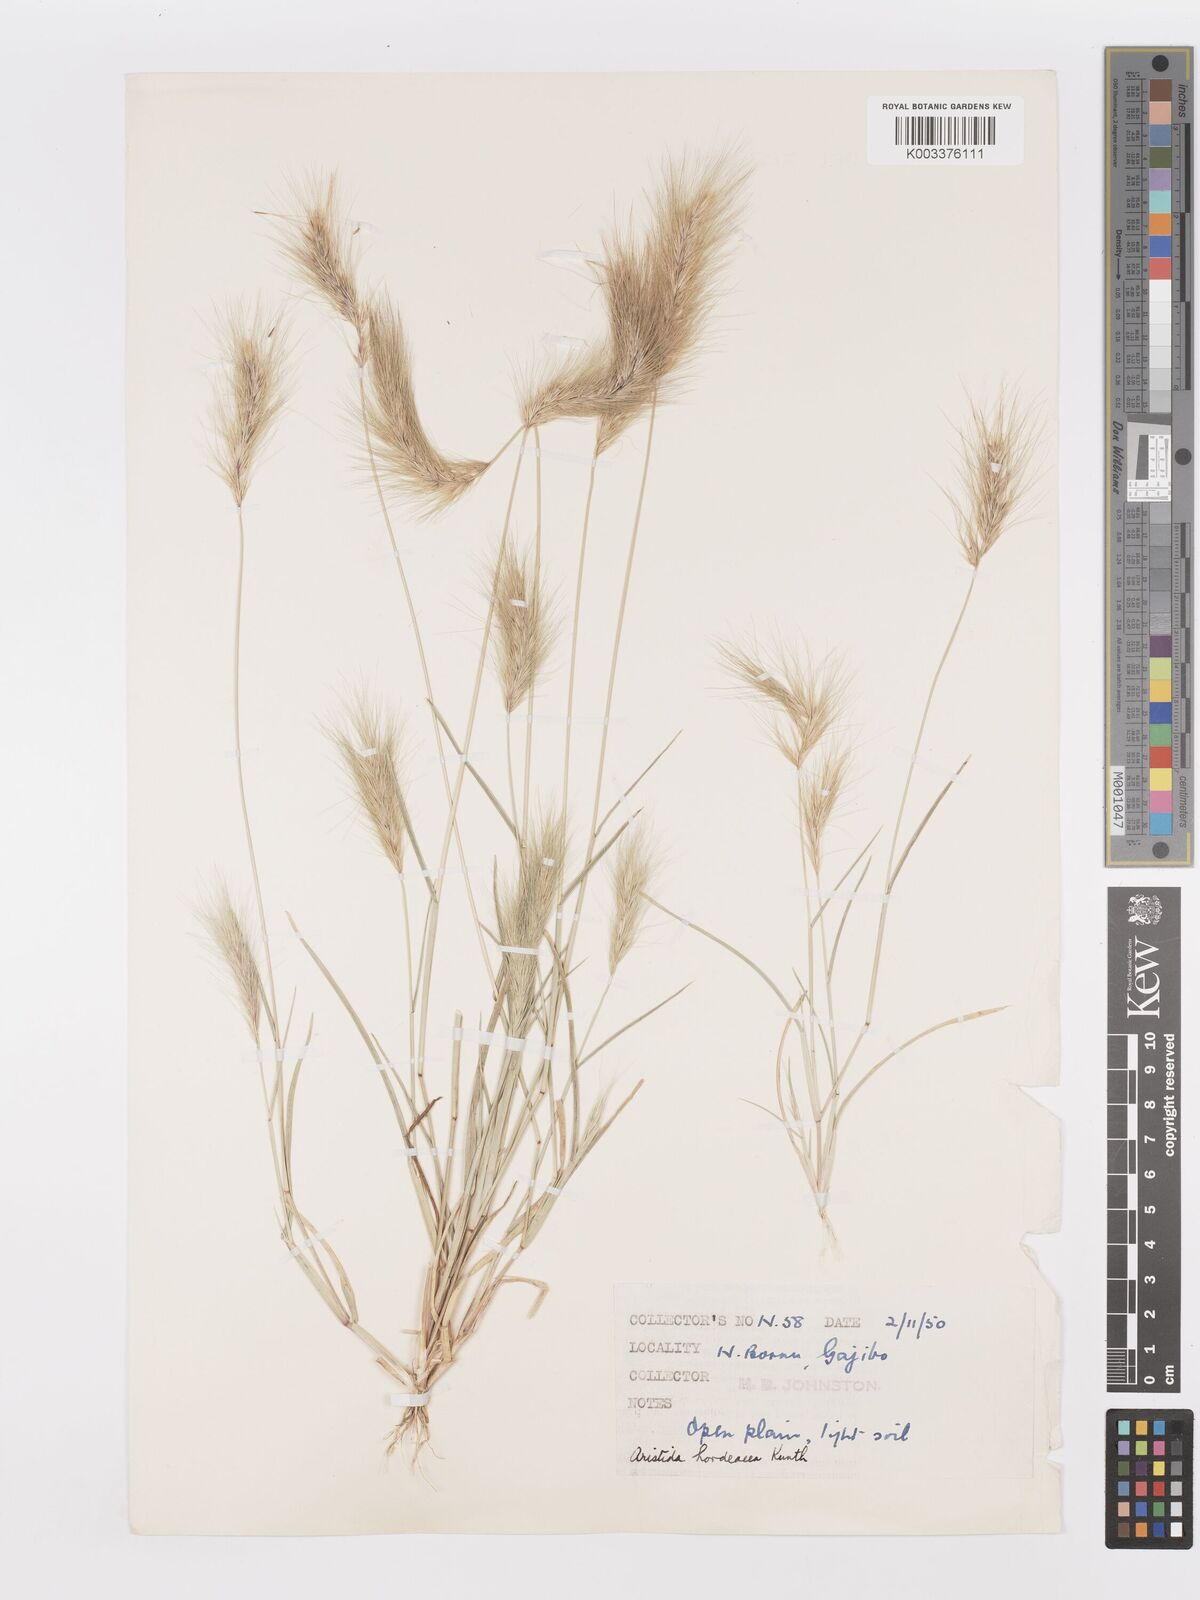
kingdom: Plantae
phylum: Tracheophyta
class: Liliopsida
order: Poales
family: Poaceae
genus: Aristida
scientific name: Aristida hordeacea
